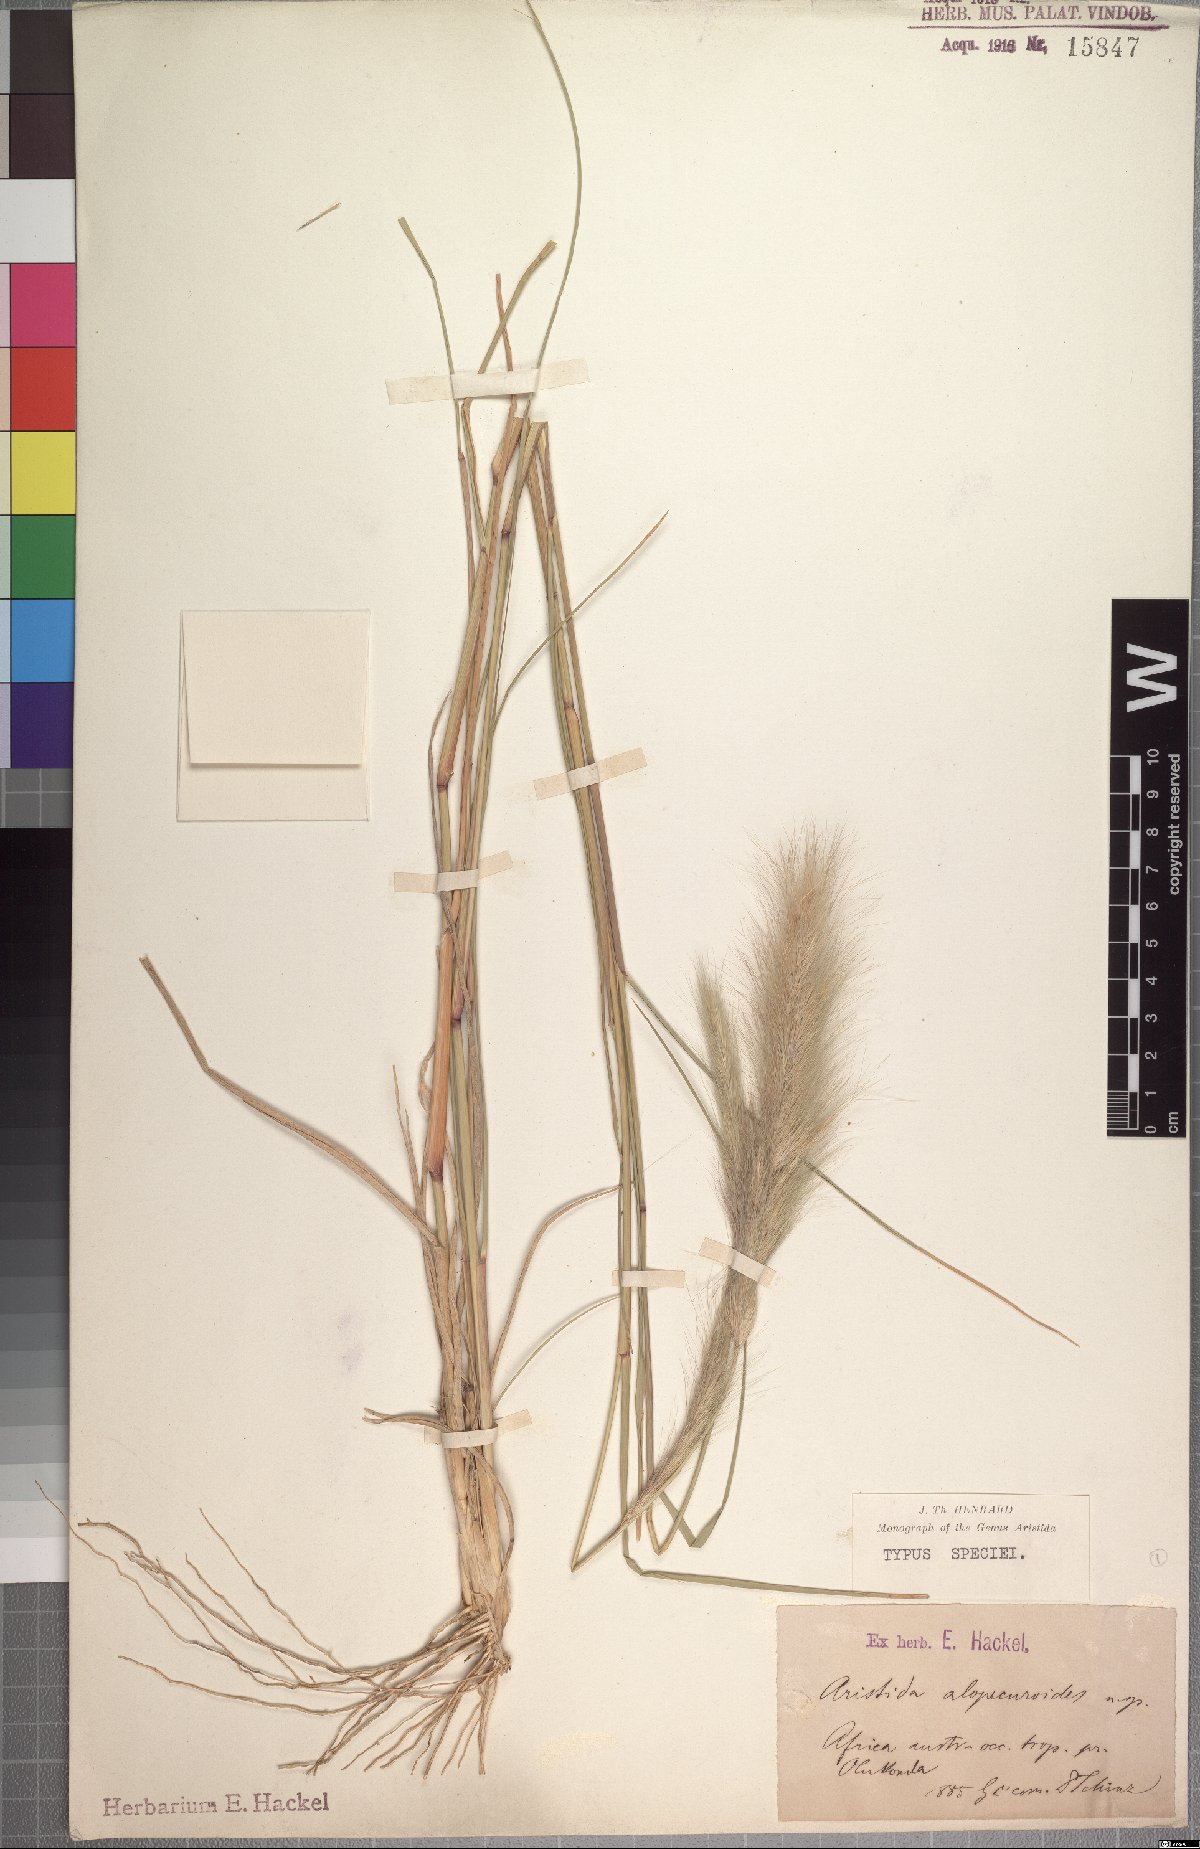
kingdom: Plantae
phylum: Tracheophyta
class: Liliopsida
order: Poales
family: Poaceae
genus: Aristida
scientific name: Aristida congesta
